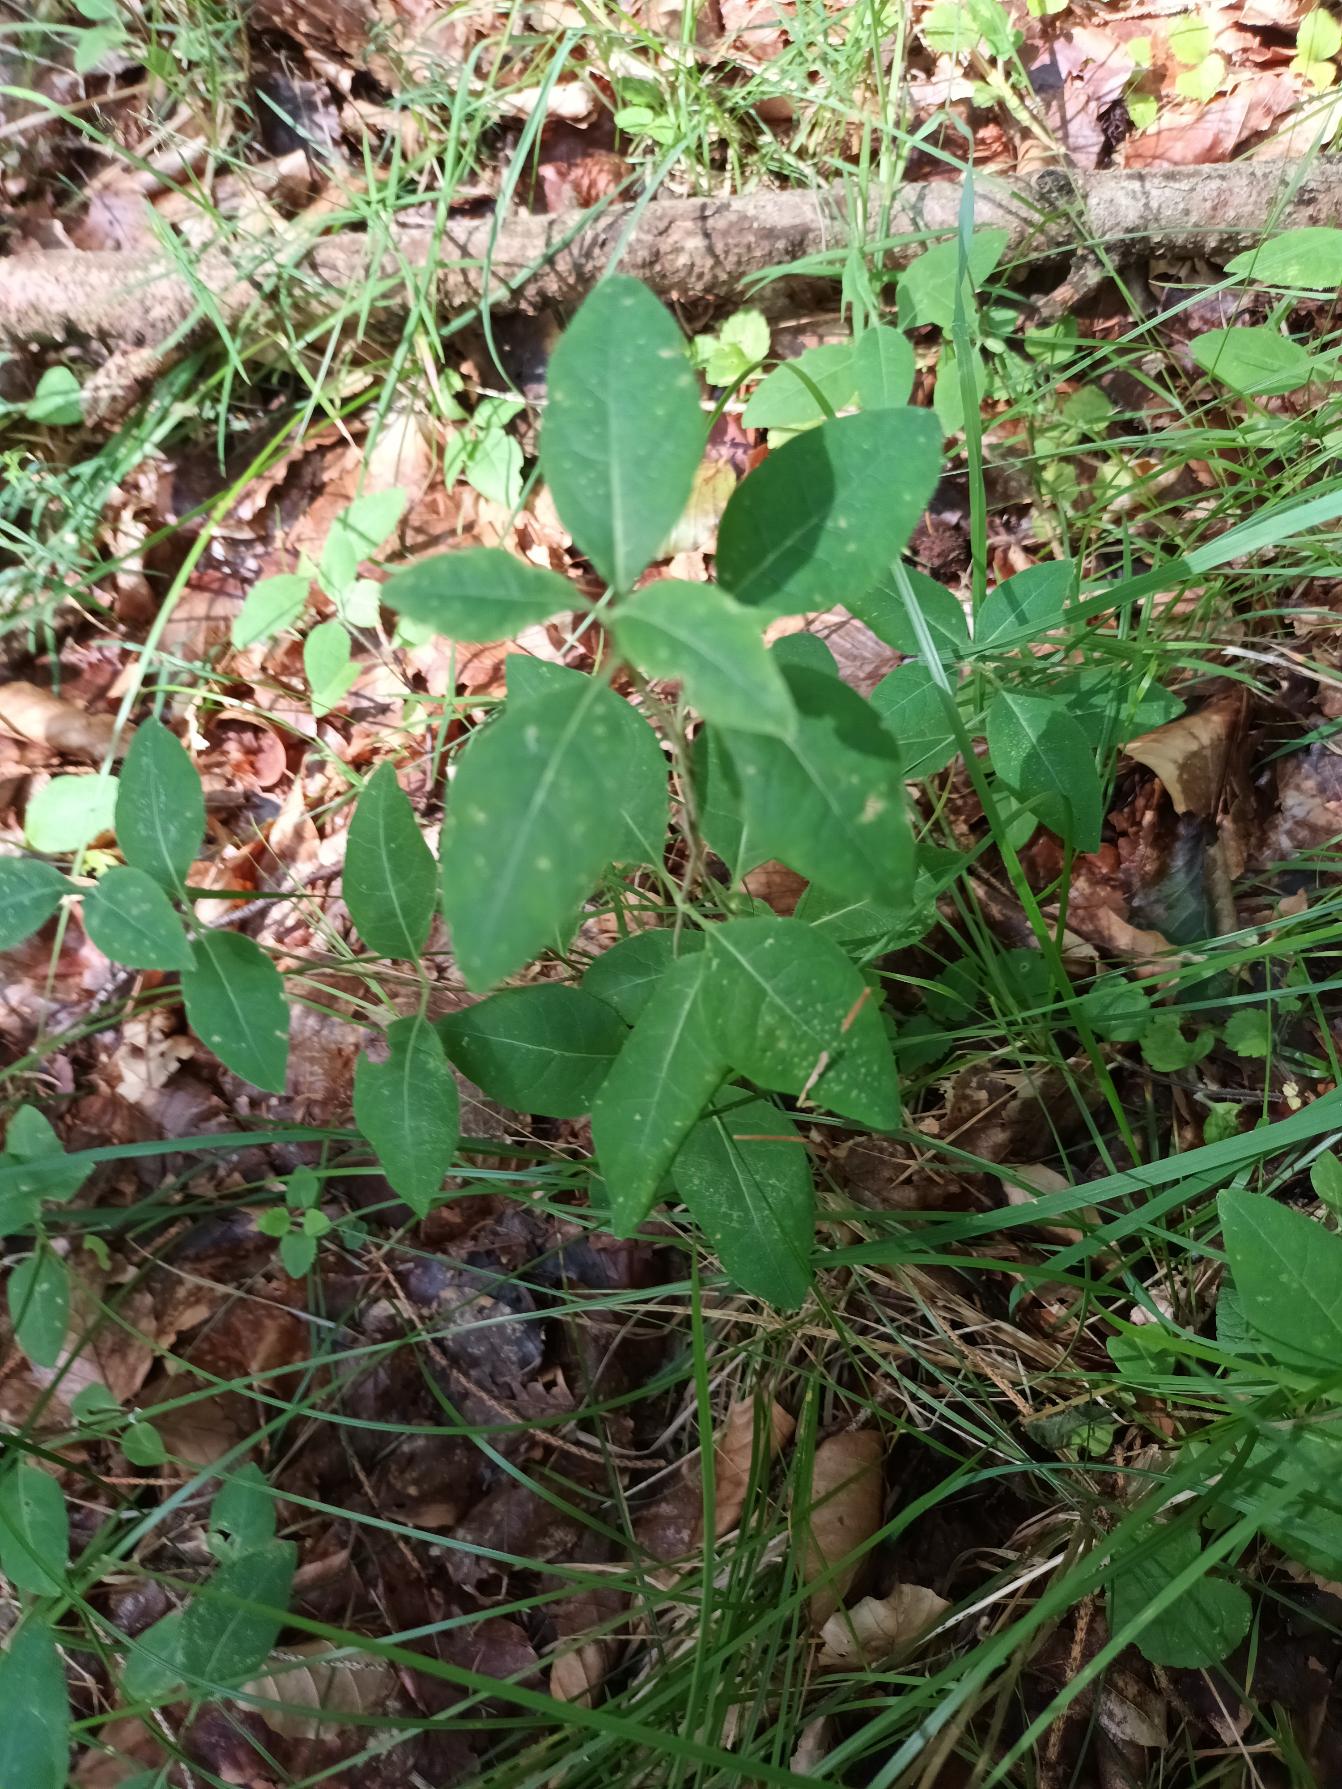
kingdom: Plantae
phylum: Tracheophyta
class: Magnoliopsida
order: Dipsacales
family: Caprifoliaceae
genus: Lonicera
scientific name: Lonicera periclymenum
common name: Almindelig gedeblad
